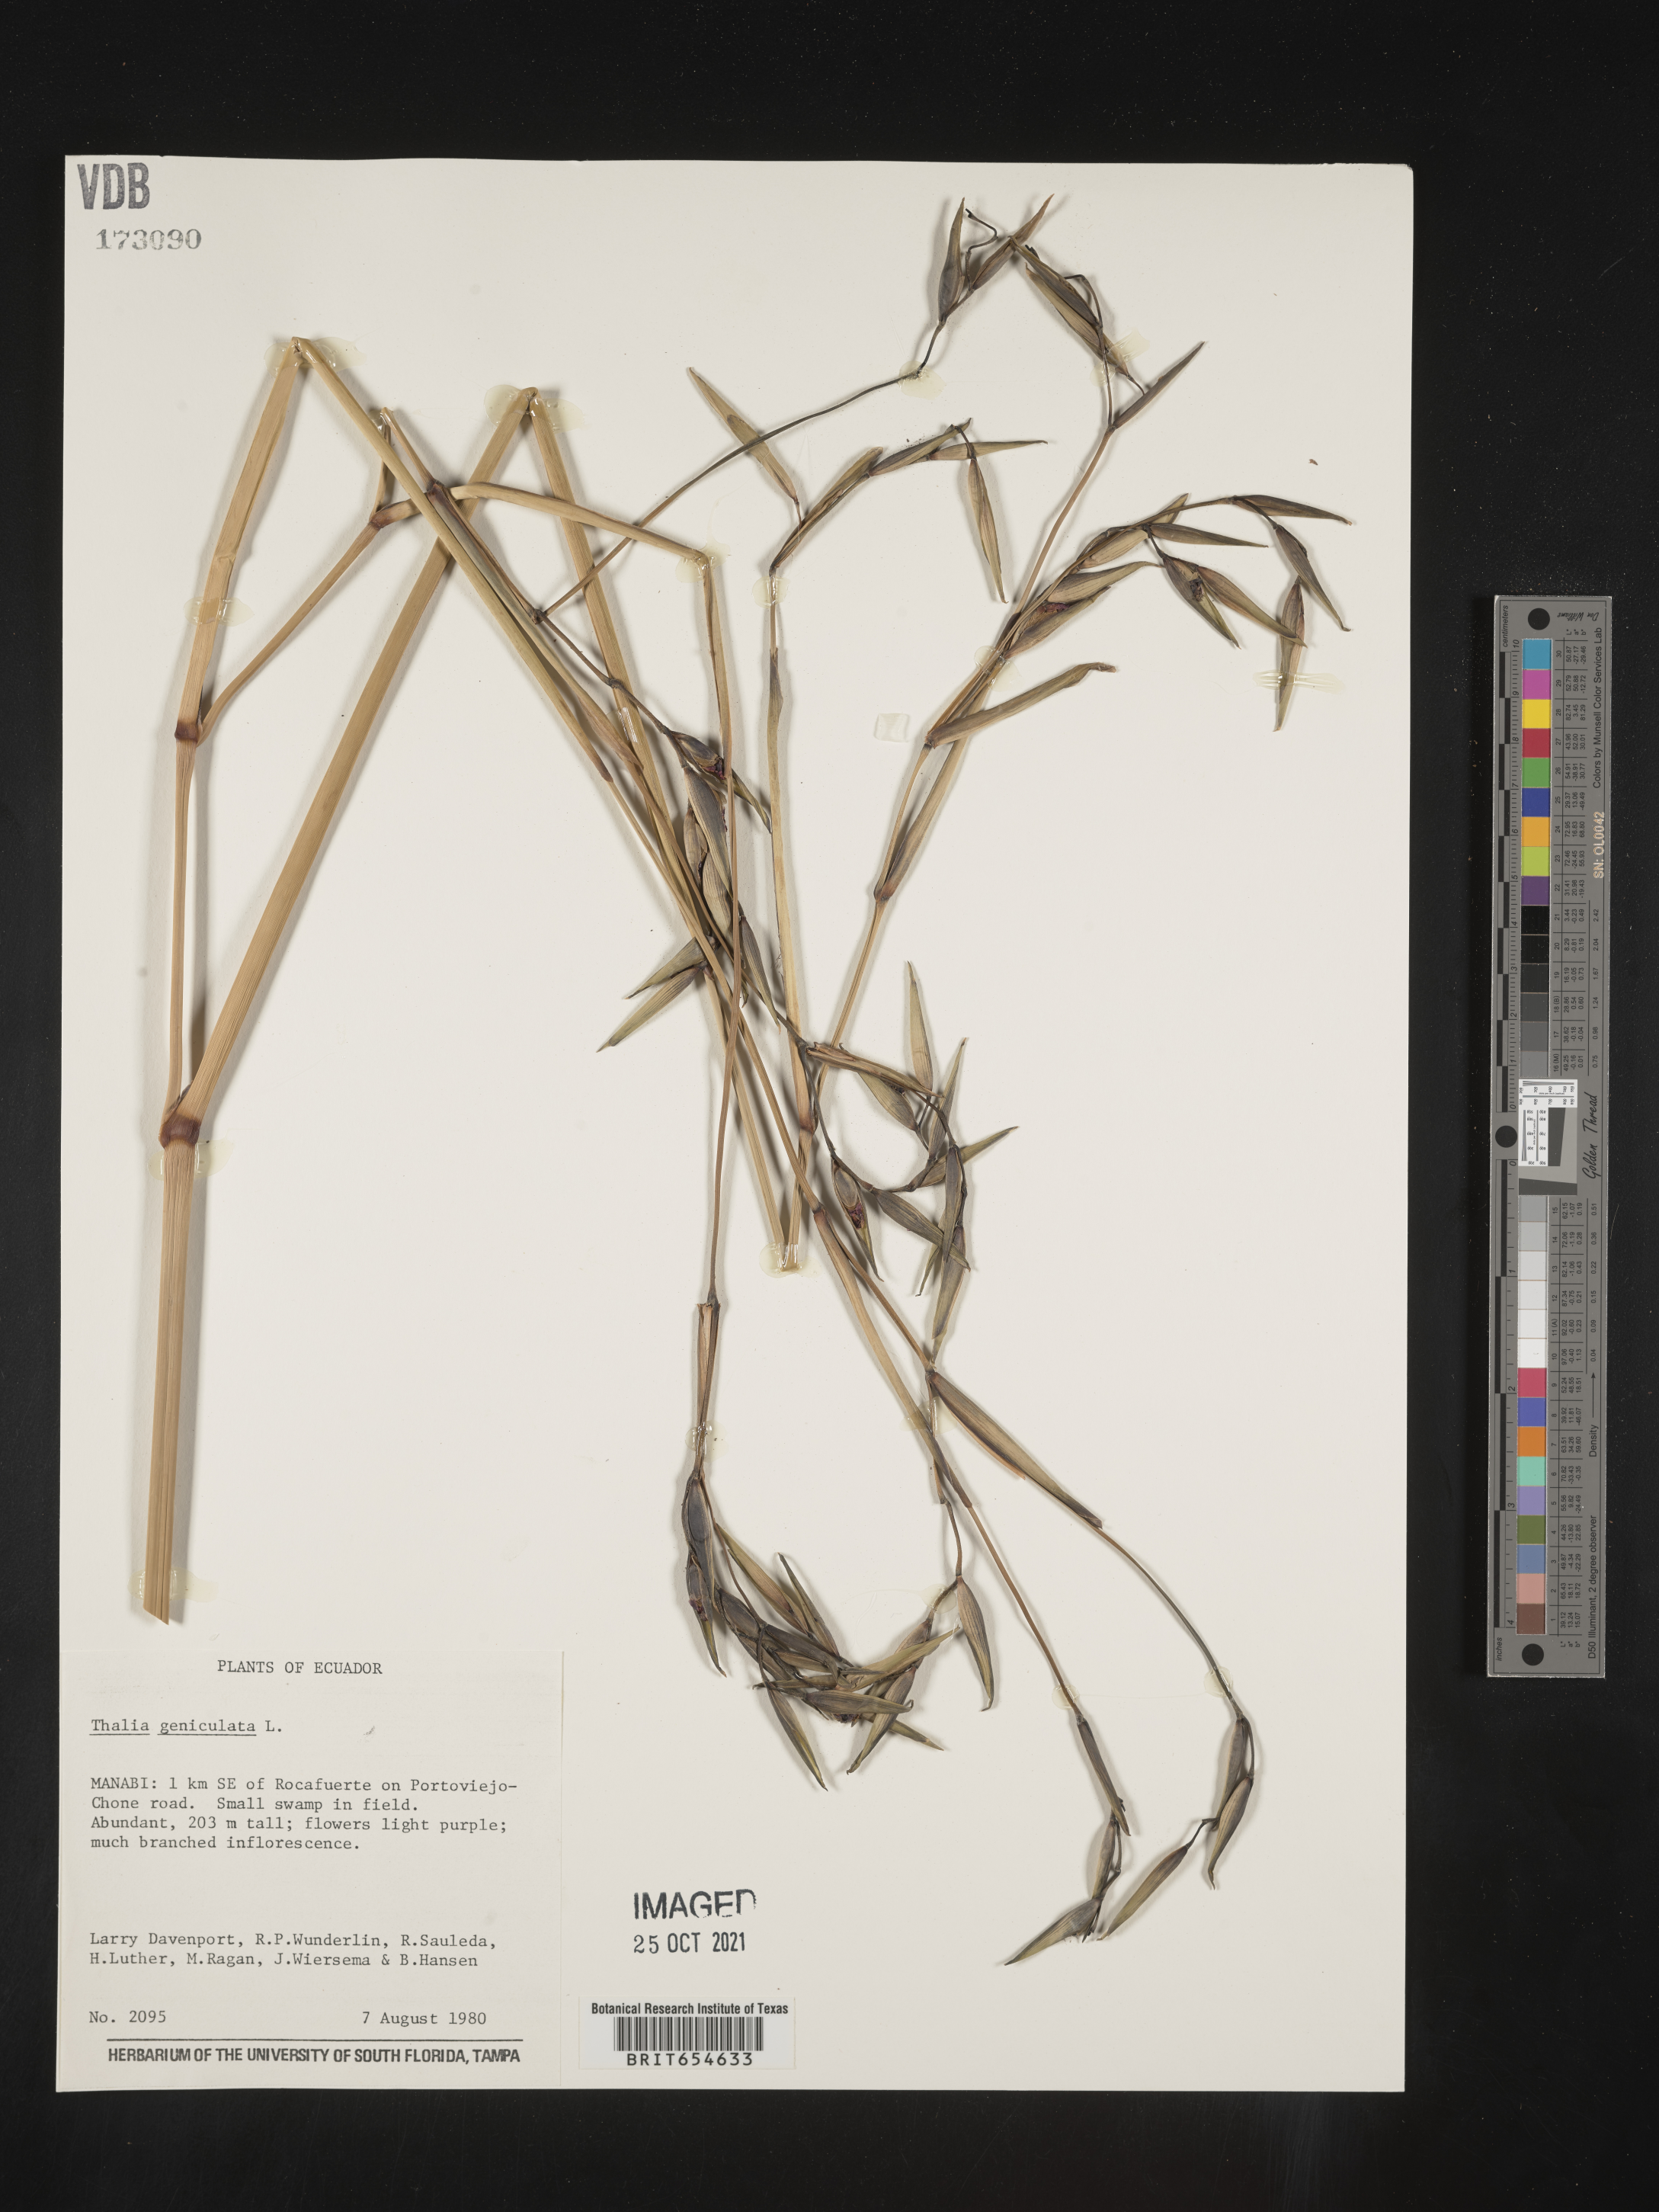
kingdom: Plantae
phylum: Tracheophyta
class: Liliopsida
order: Zingiberales
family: Marantaceae
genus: Thalia
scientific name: Thalia
